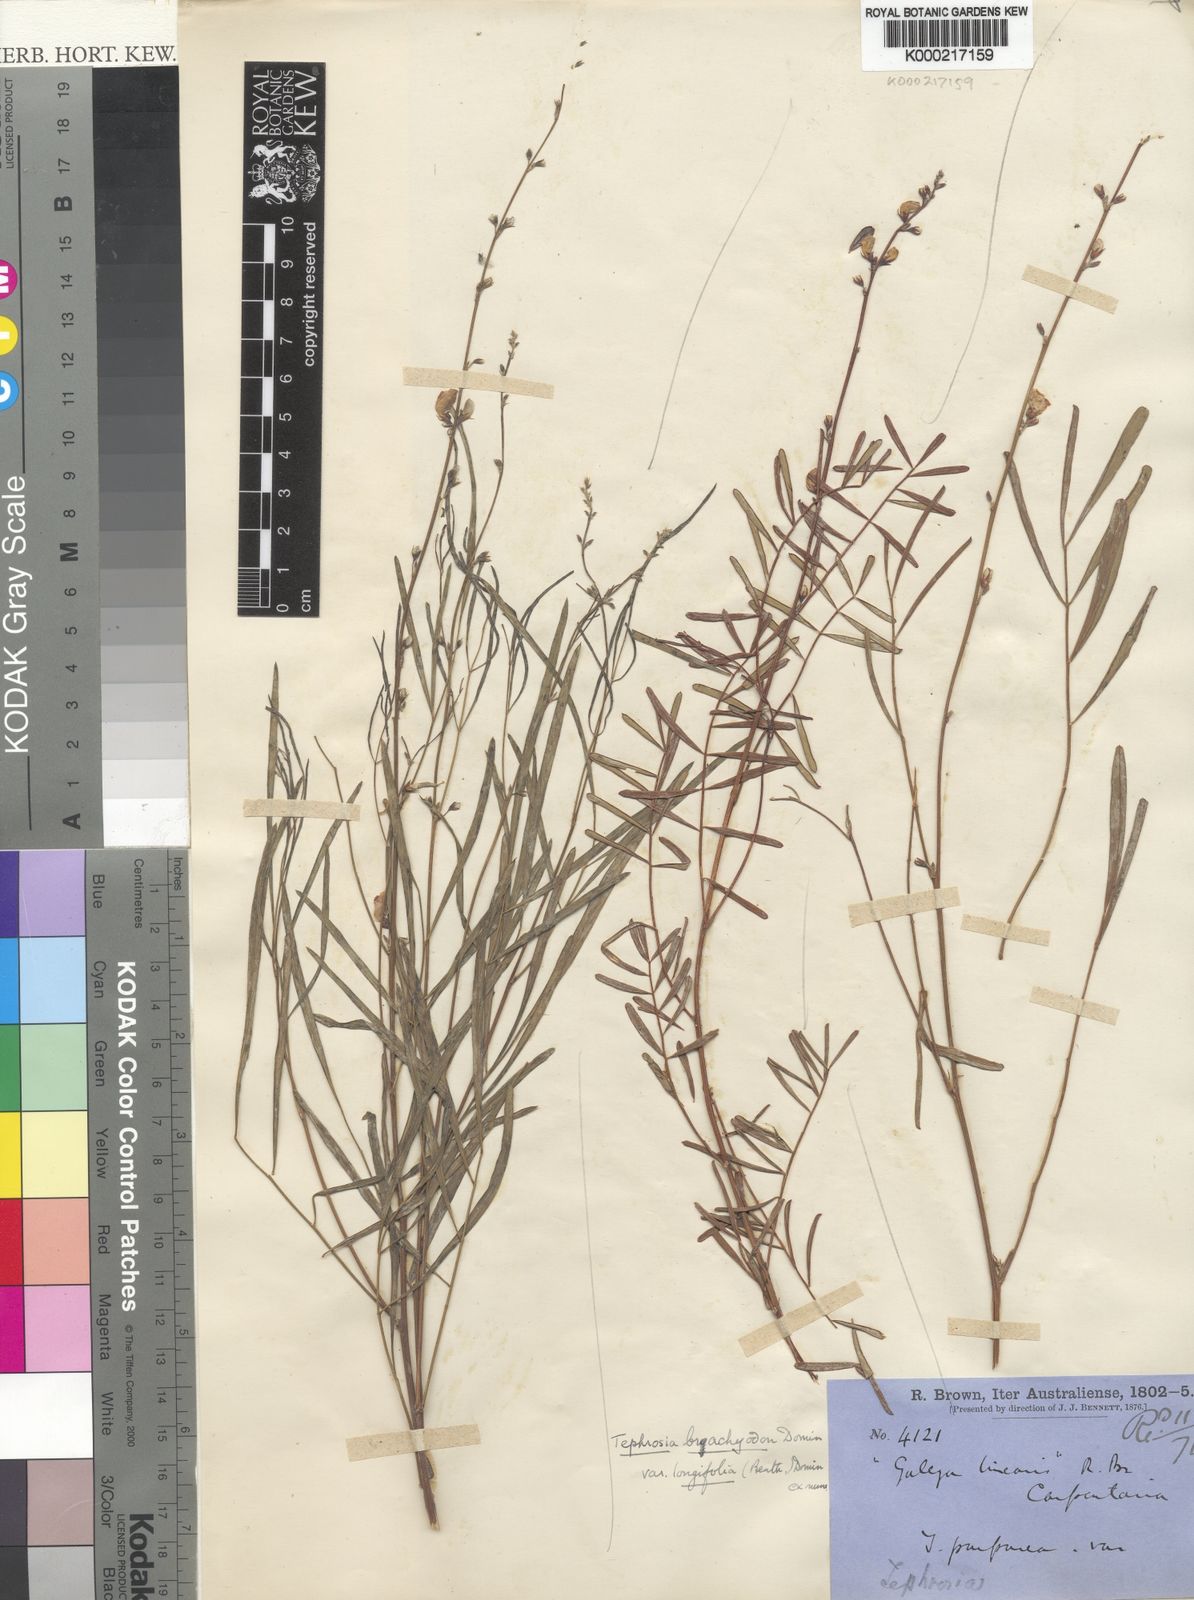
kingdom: Plantae
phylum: Tracheophyta
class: Magnoliopsida
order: Fabales
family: Fabaceae
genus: Tephrosia
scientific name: Tephrosia brachyodon
